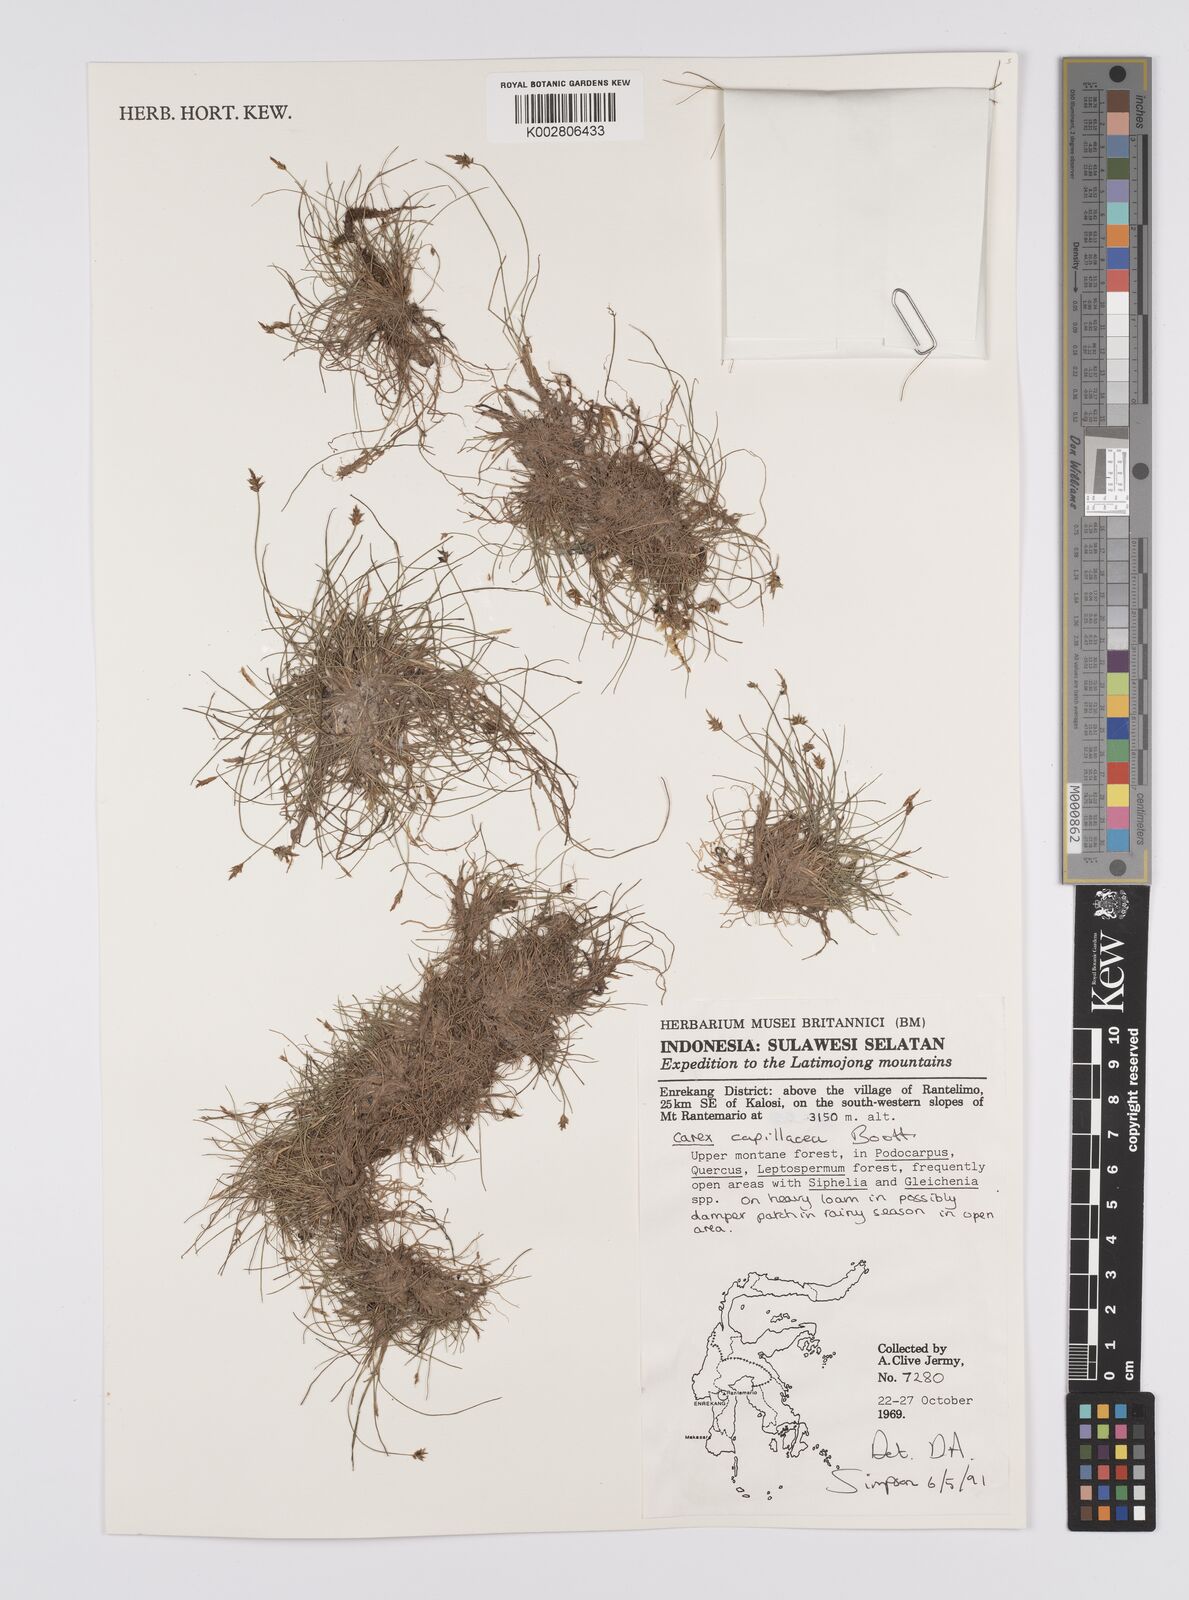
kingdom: Plantae
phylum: Tracheophyta
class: Liliopsida
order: Poales
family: Cyperaceae
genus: Carex
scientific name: Carex capillacea
